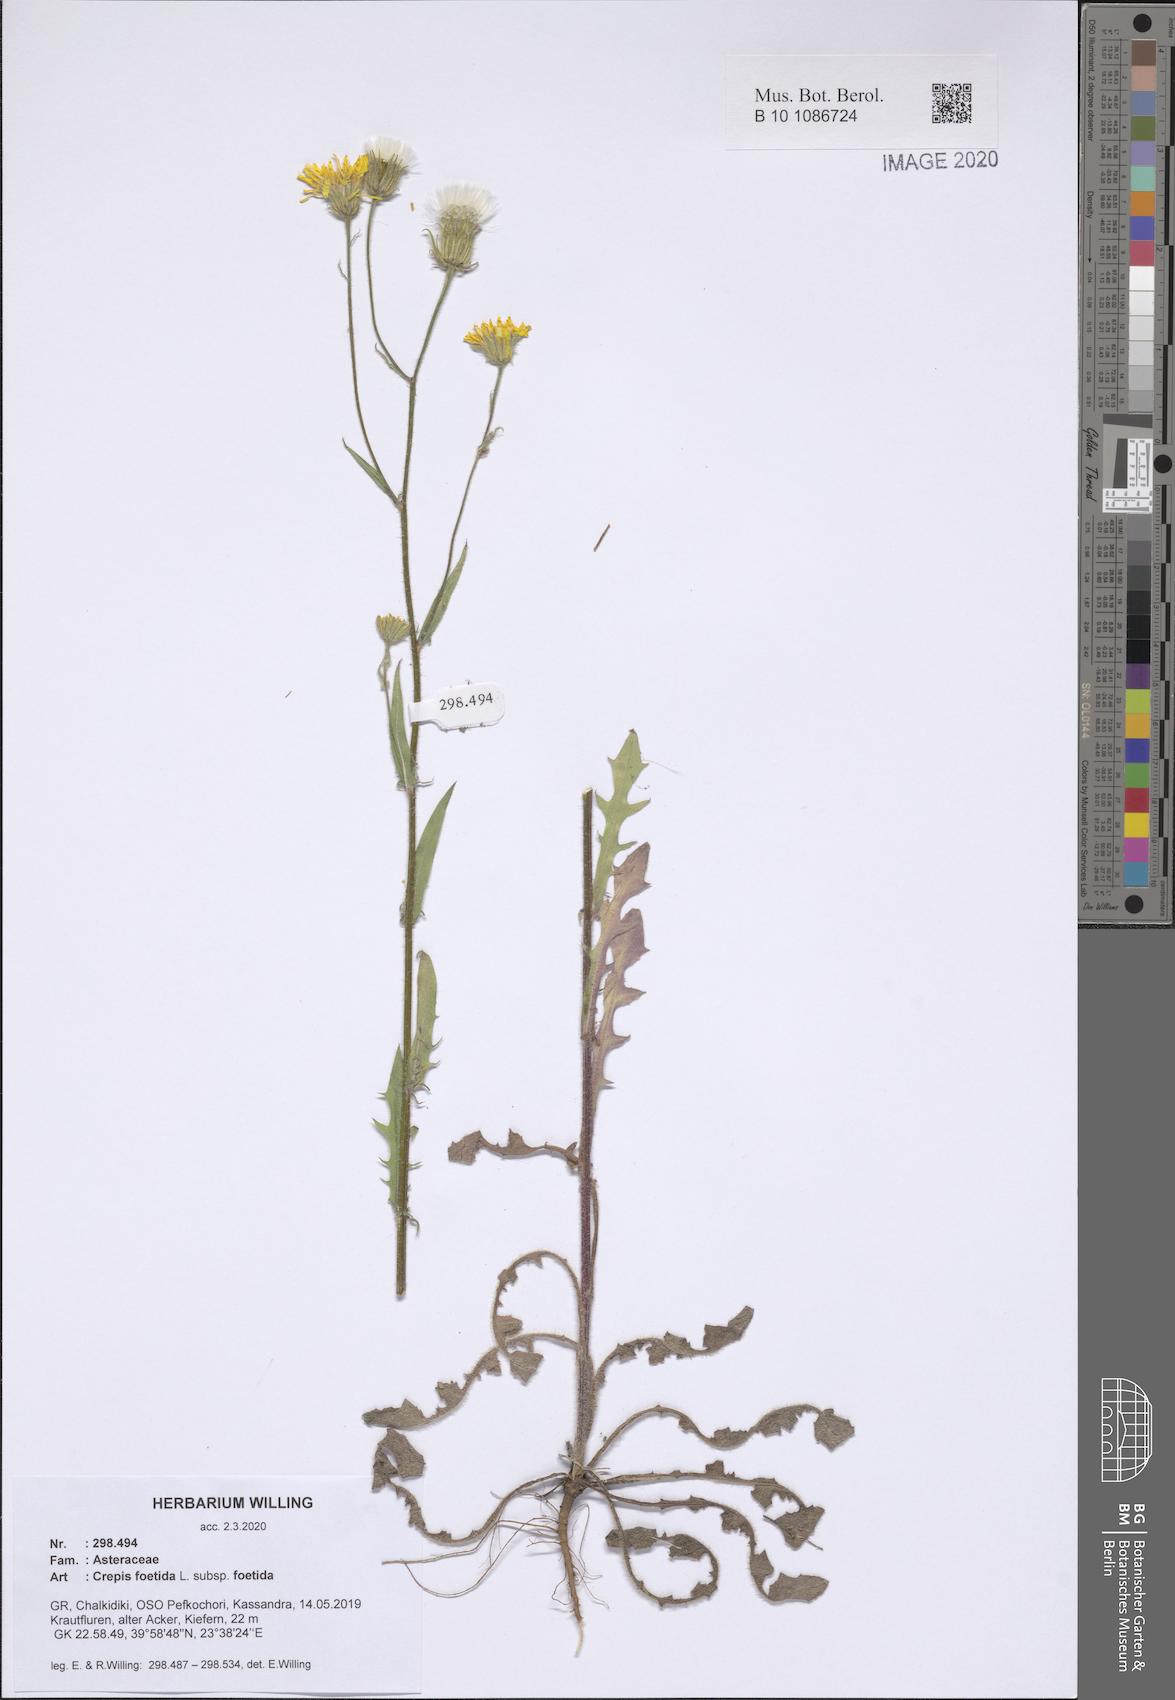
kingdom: Plantae
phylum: Tracheophyta
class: Magnoliopsida
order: Asterales
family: Asteraceae
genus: Crepis
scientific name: Crepis foetida
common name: Stinking hawk's-beard
